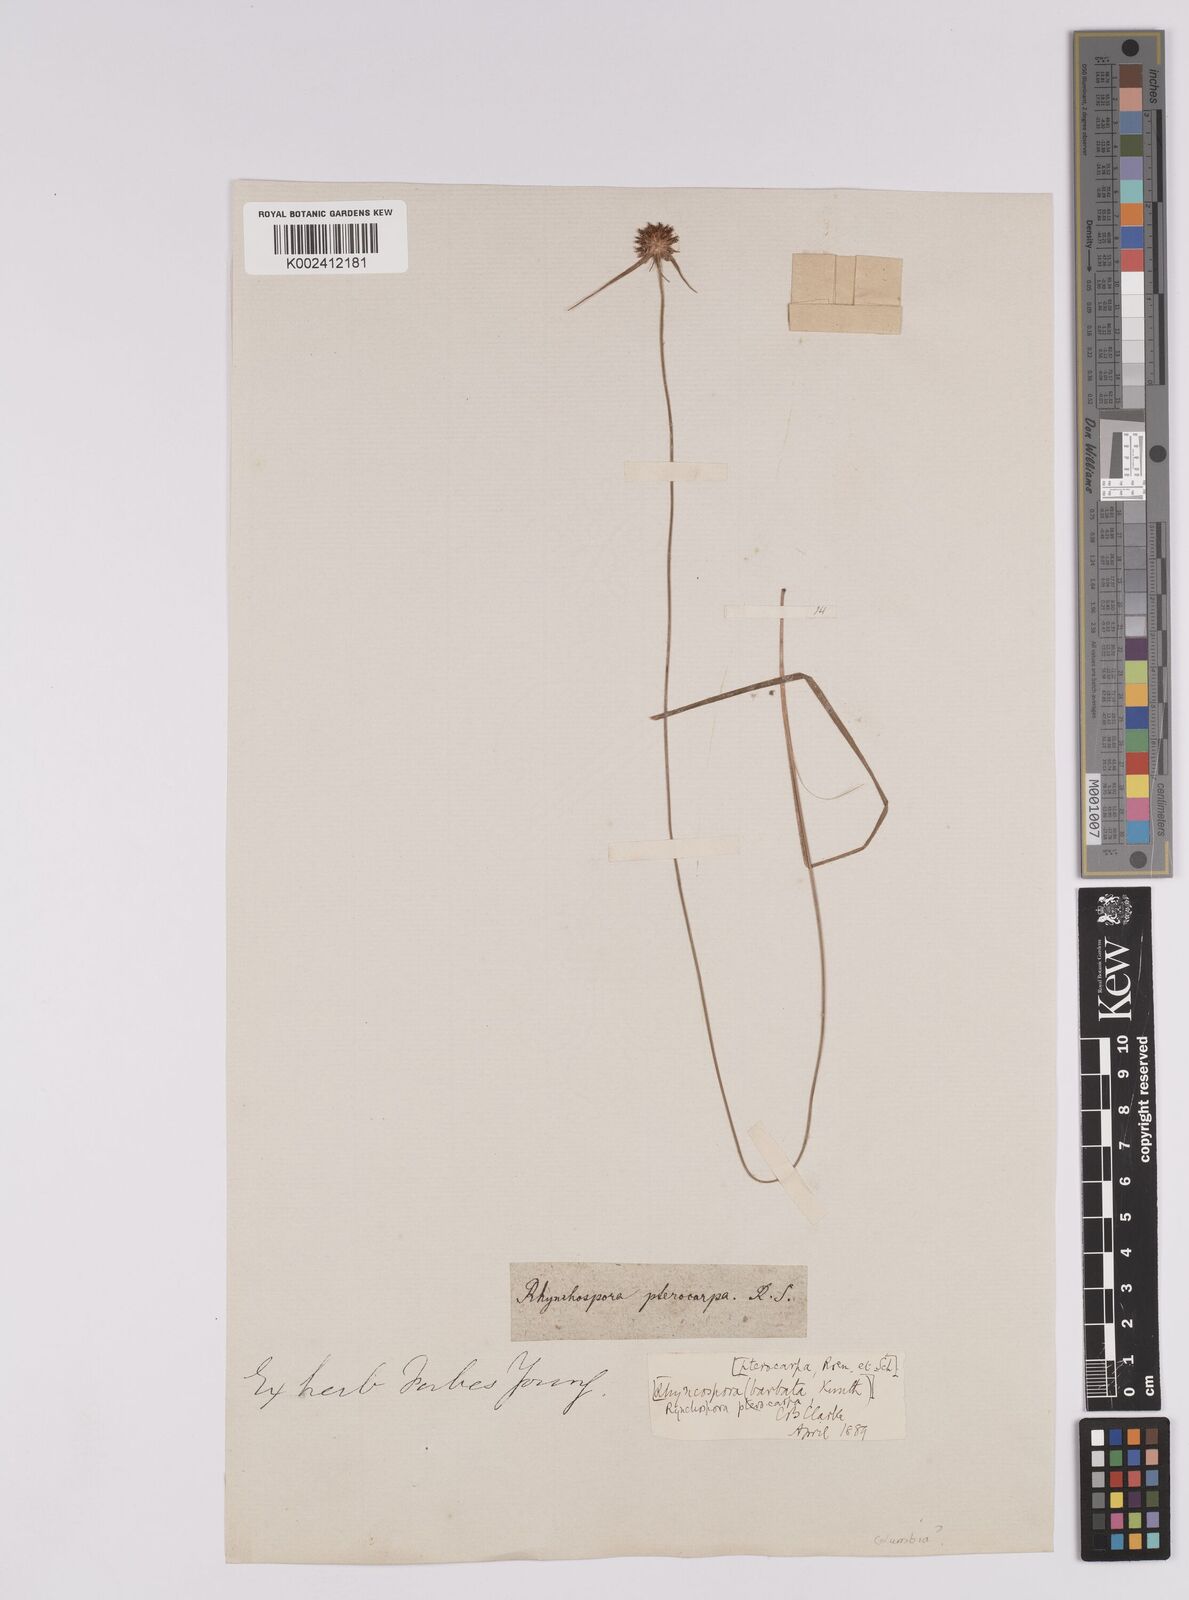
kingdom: Plantae
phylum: Tracheophyta
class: Liliopsida
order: Poales
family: Cyperaceae
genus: Rhynchospora
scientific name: Rhynchospora barbata
